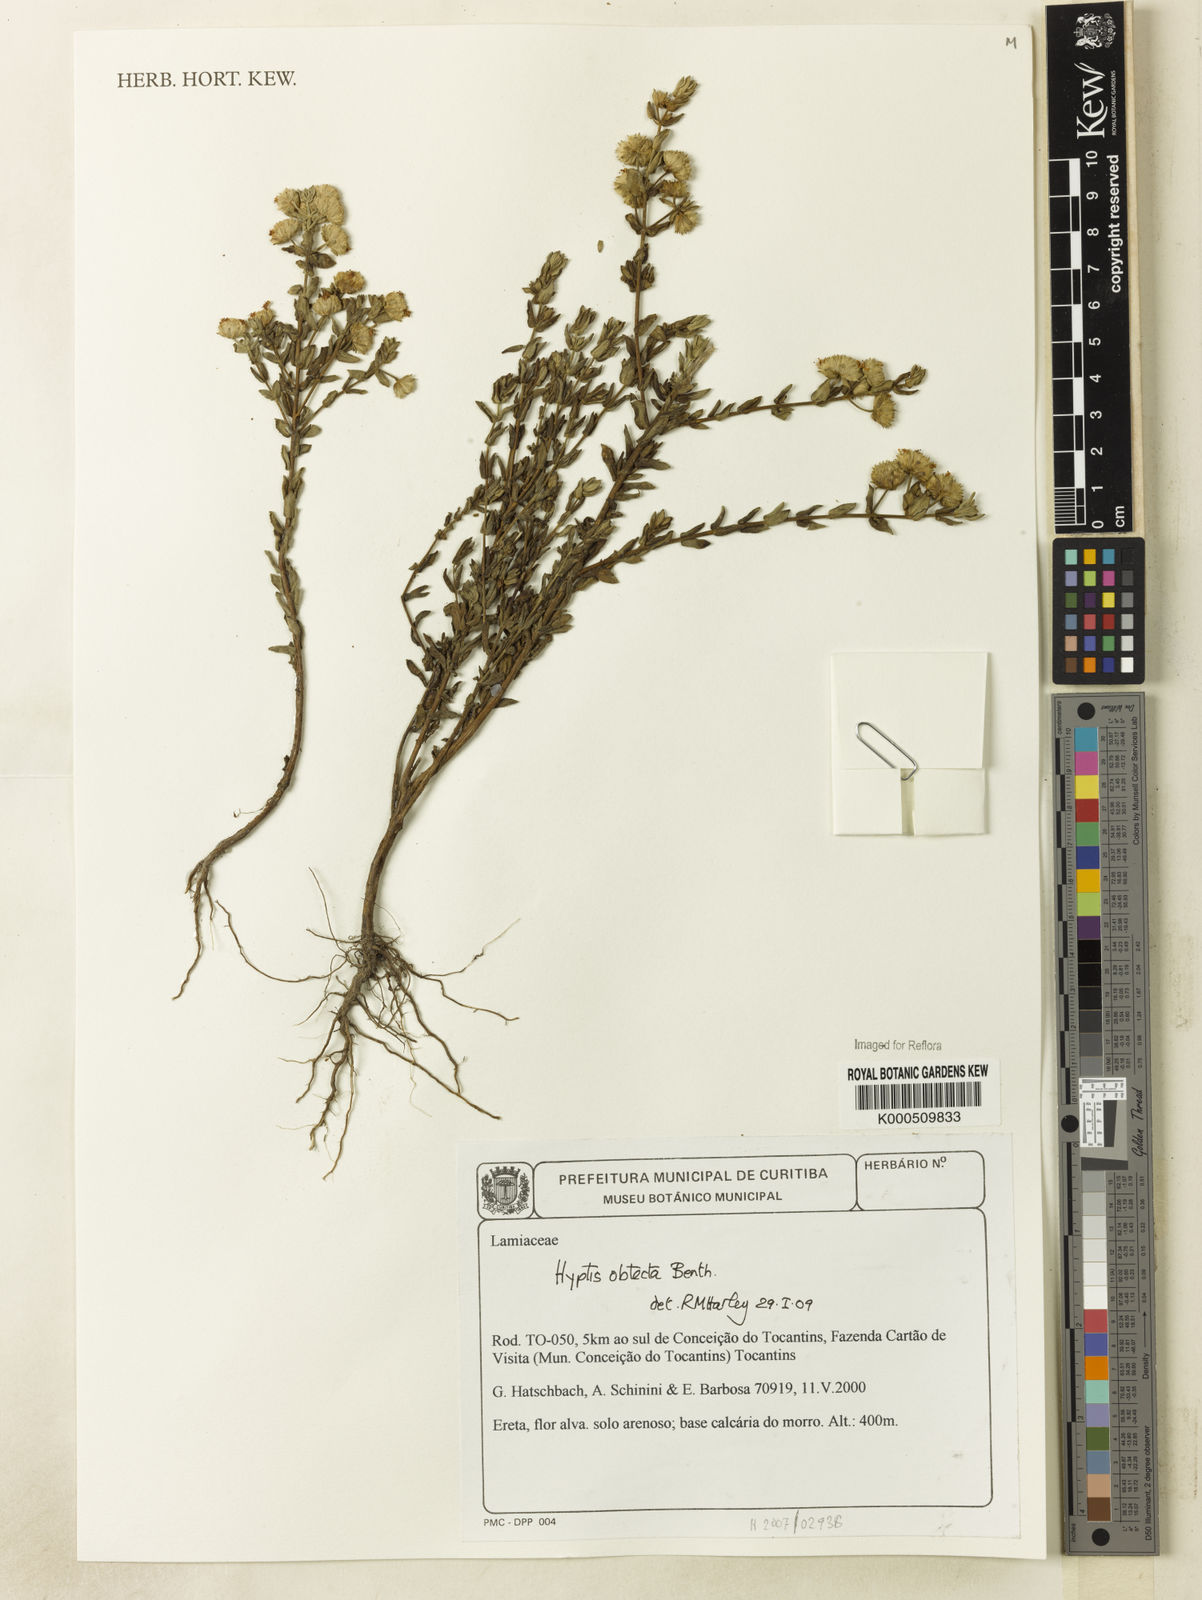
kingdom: Plantae
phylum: Tracheophyta
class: Magnoliopsida
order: Lamiales
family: Lamiaceae
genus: Hyptis
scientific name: Hyptis obtecta
